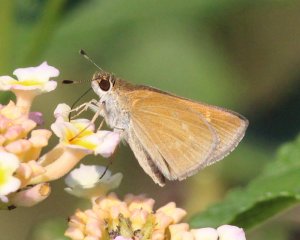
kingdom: Animalia
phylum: Arthropoda
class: Insecta
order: Lepidoptera
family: Hesperiidae
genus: Nastra
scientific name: Nastra julia
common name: Julia's Skipper
